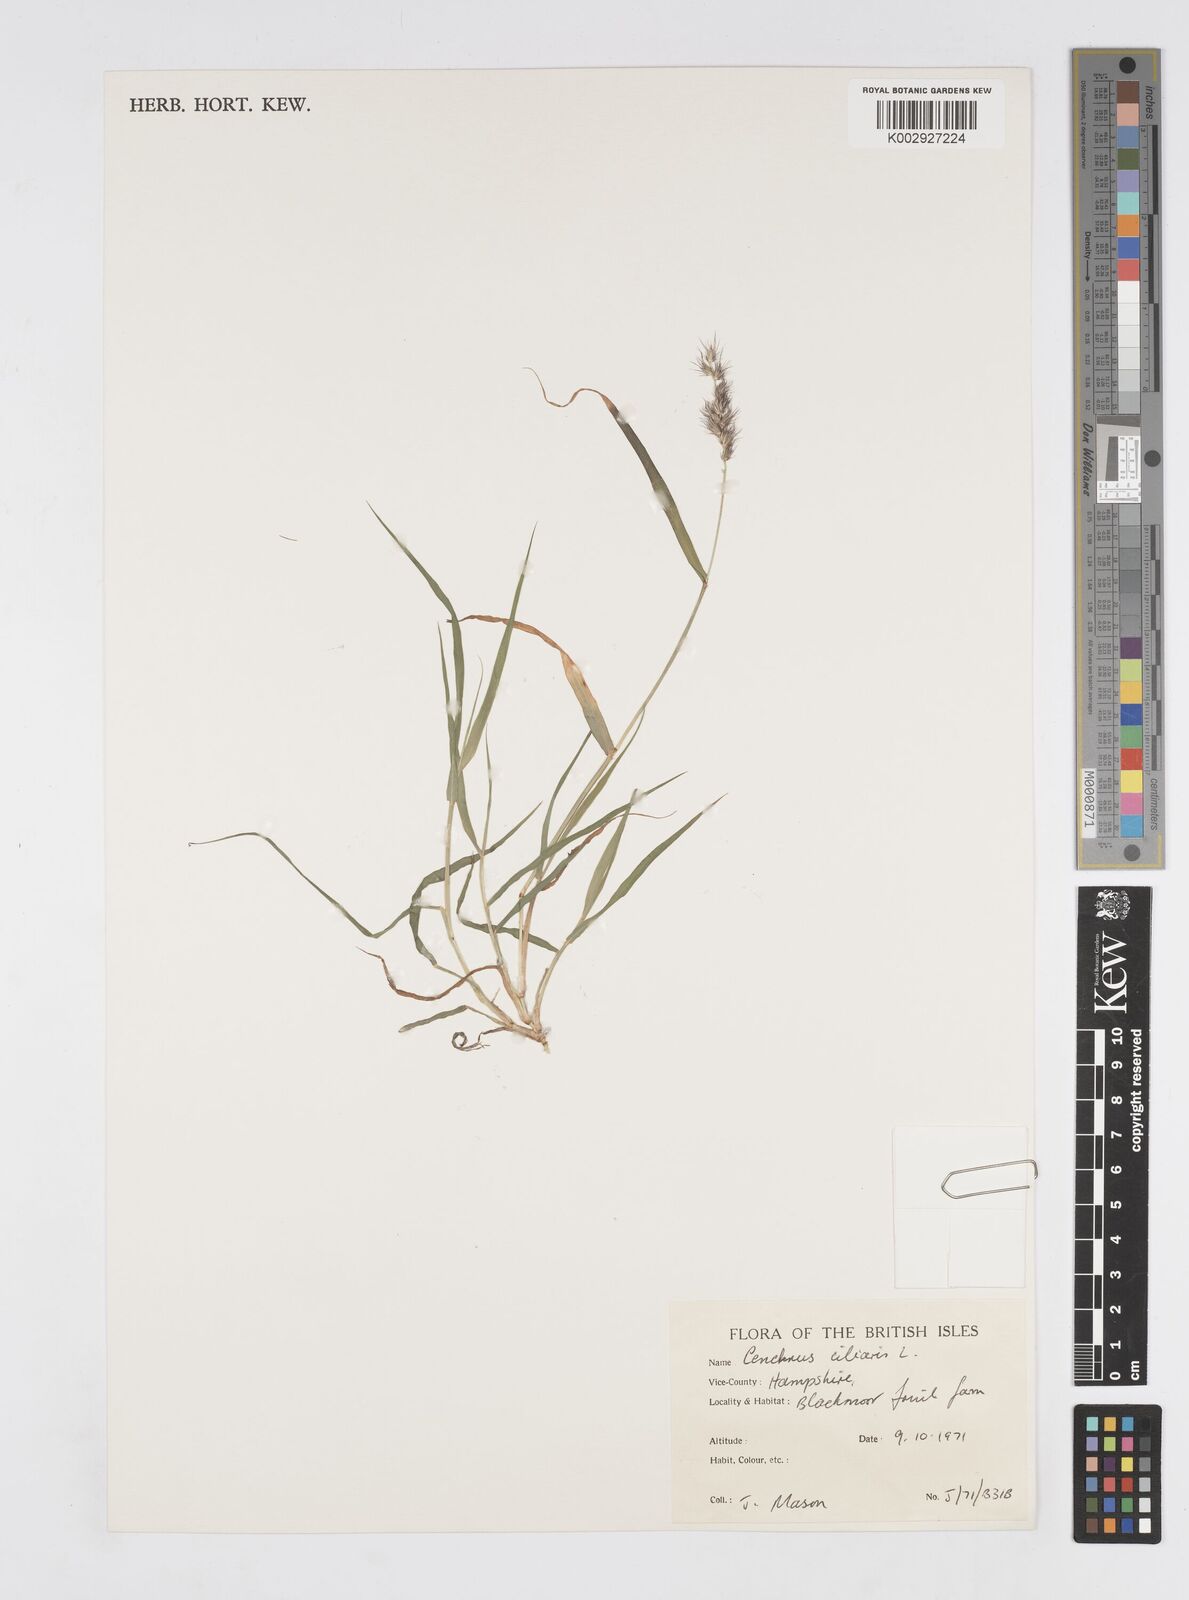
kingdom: Plantae
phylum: Tracheophyta
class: Liliopsida
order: Poales
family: Poaceae
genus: Cenchrus
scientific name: Cenchrus ciliaris
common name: Buffelgrass
